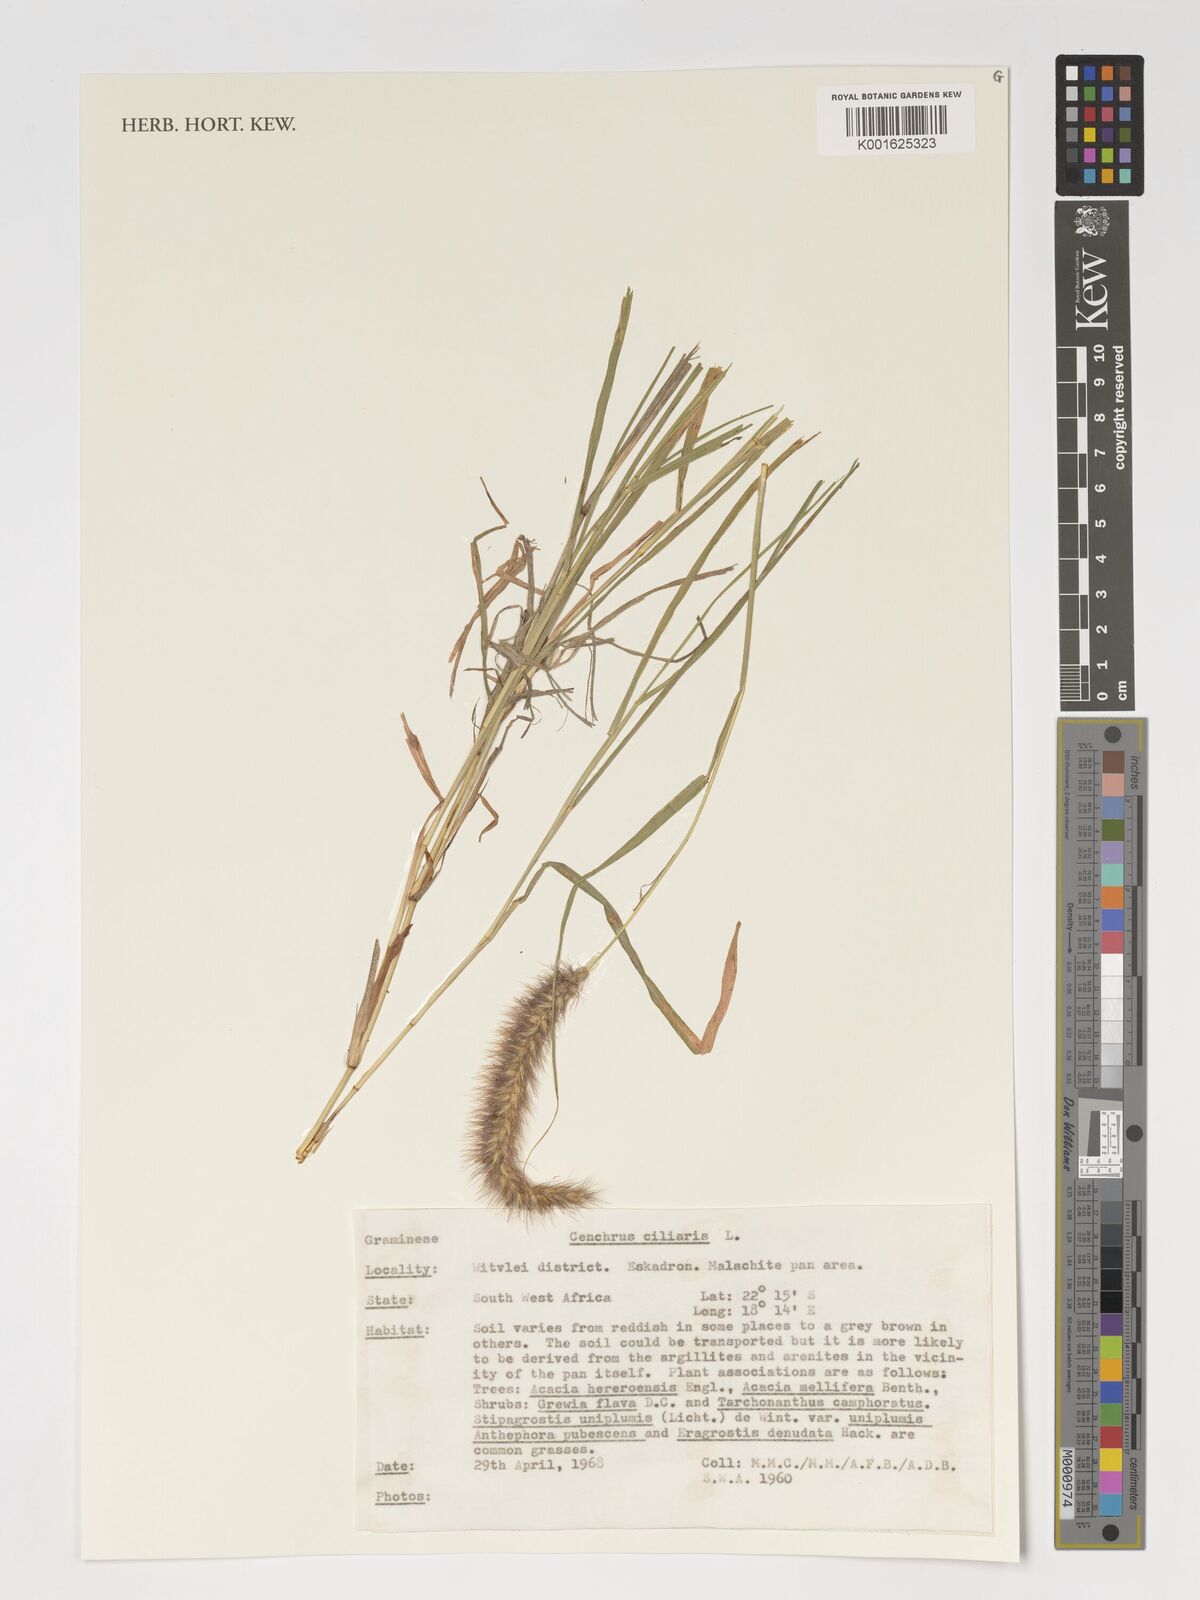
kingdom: Plantae
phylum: Tracheophyta
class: Liliopsida
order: Poales
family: Poaceae
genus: Cenchrus
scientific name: Cenchrus ciliaris
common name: Buffelgrass
